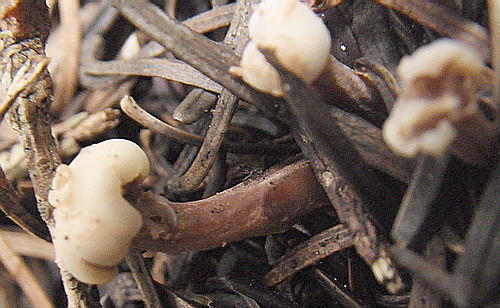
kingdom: Fungi
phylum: Ascomycota
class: Leotiomycetes
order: Rhytismatales
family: Cudoniaceae
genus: Cudonia
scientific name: Cudonia circinans
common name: hekserings-hjelmmorkel
